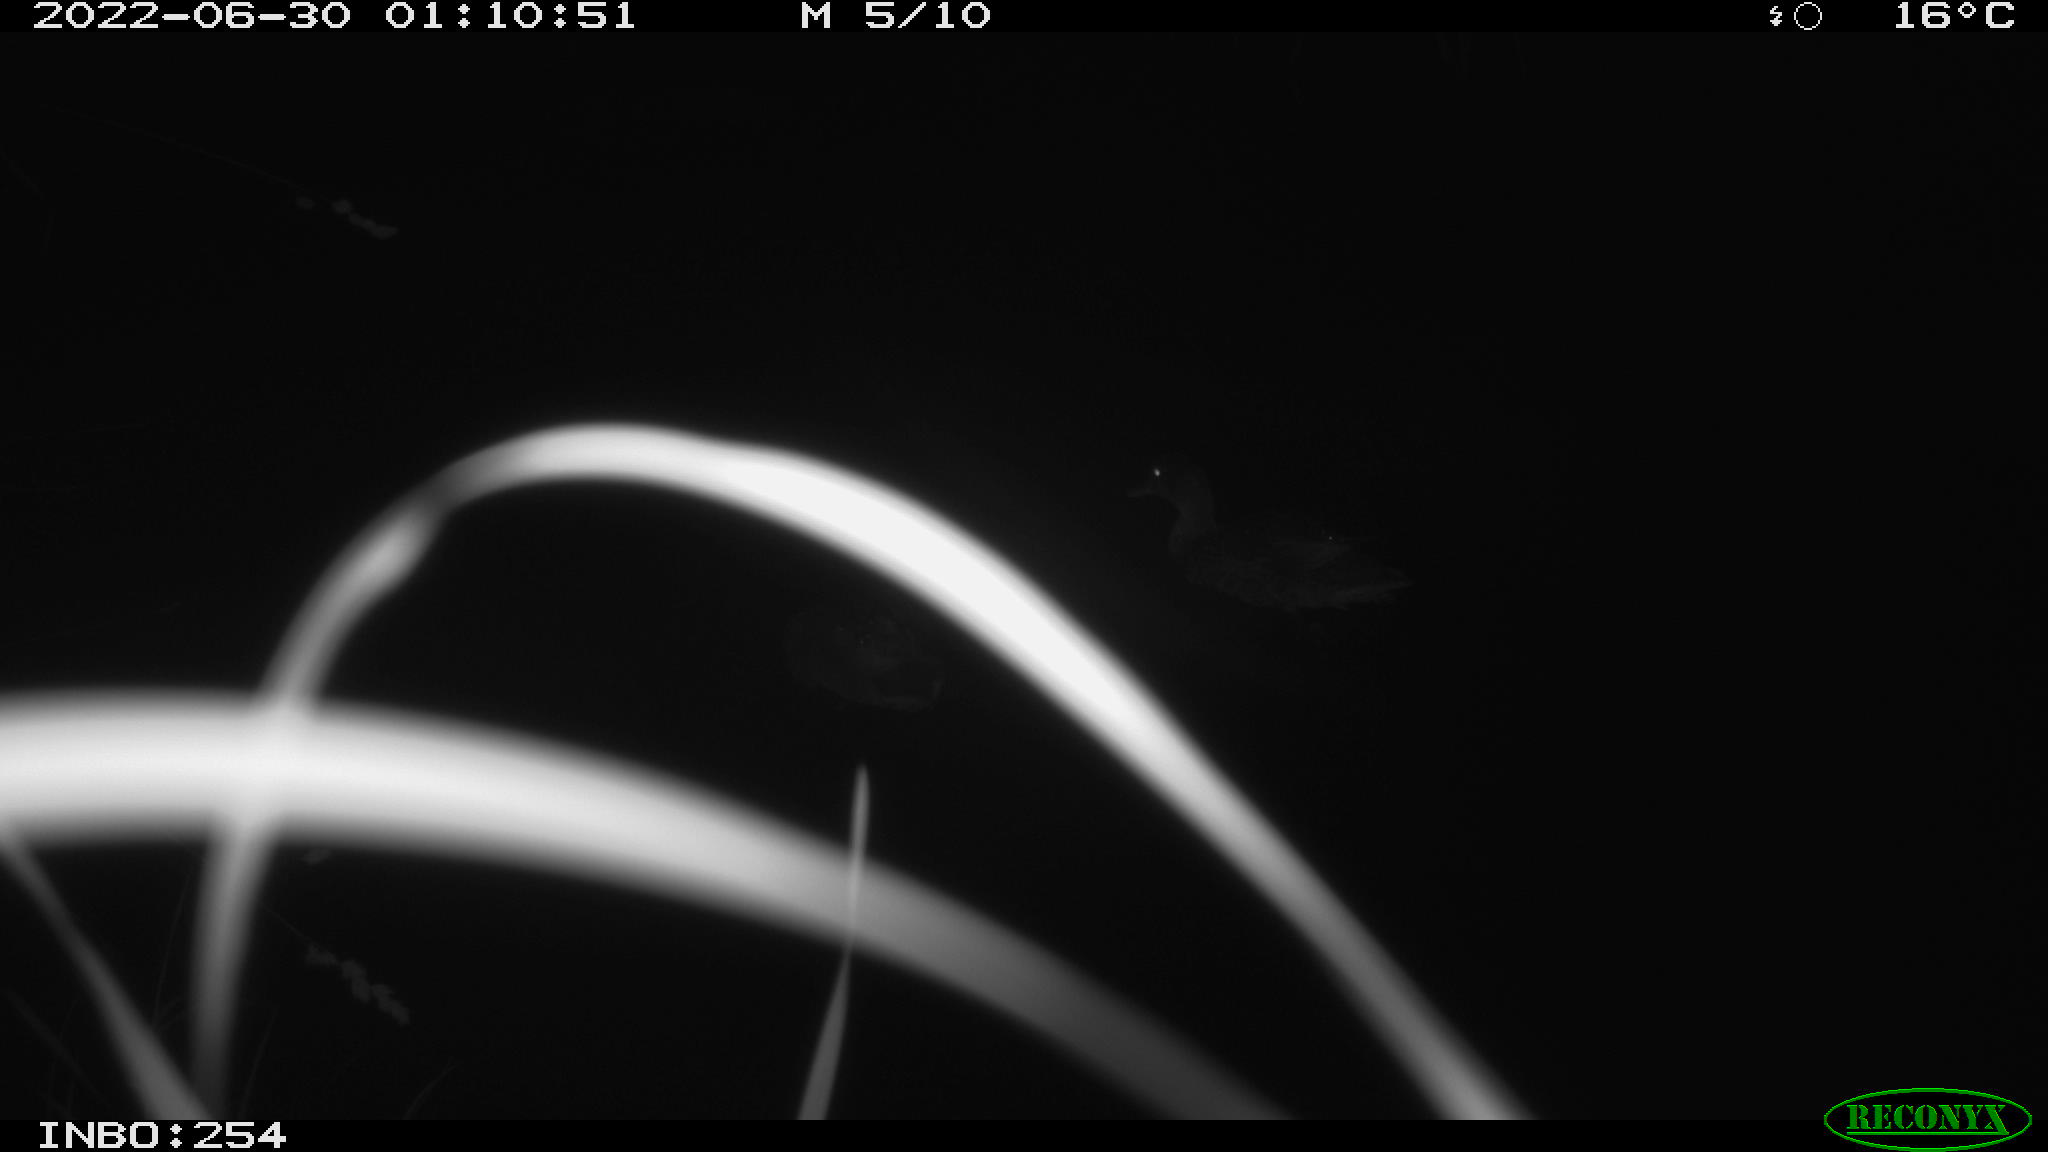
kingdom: Animalia
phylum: Chordata
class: Aves
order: Anseriformes
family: Anatidae
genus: Anas
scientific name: Anas platyrhynchos
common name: Mallard
